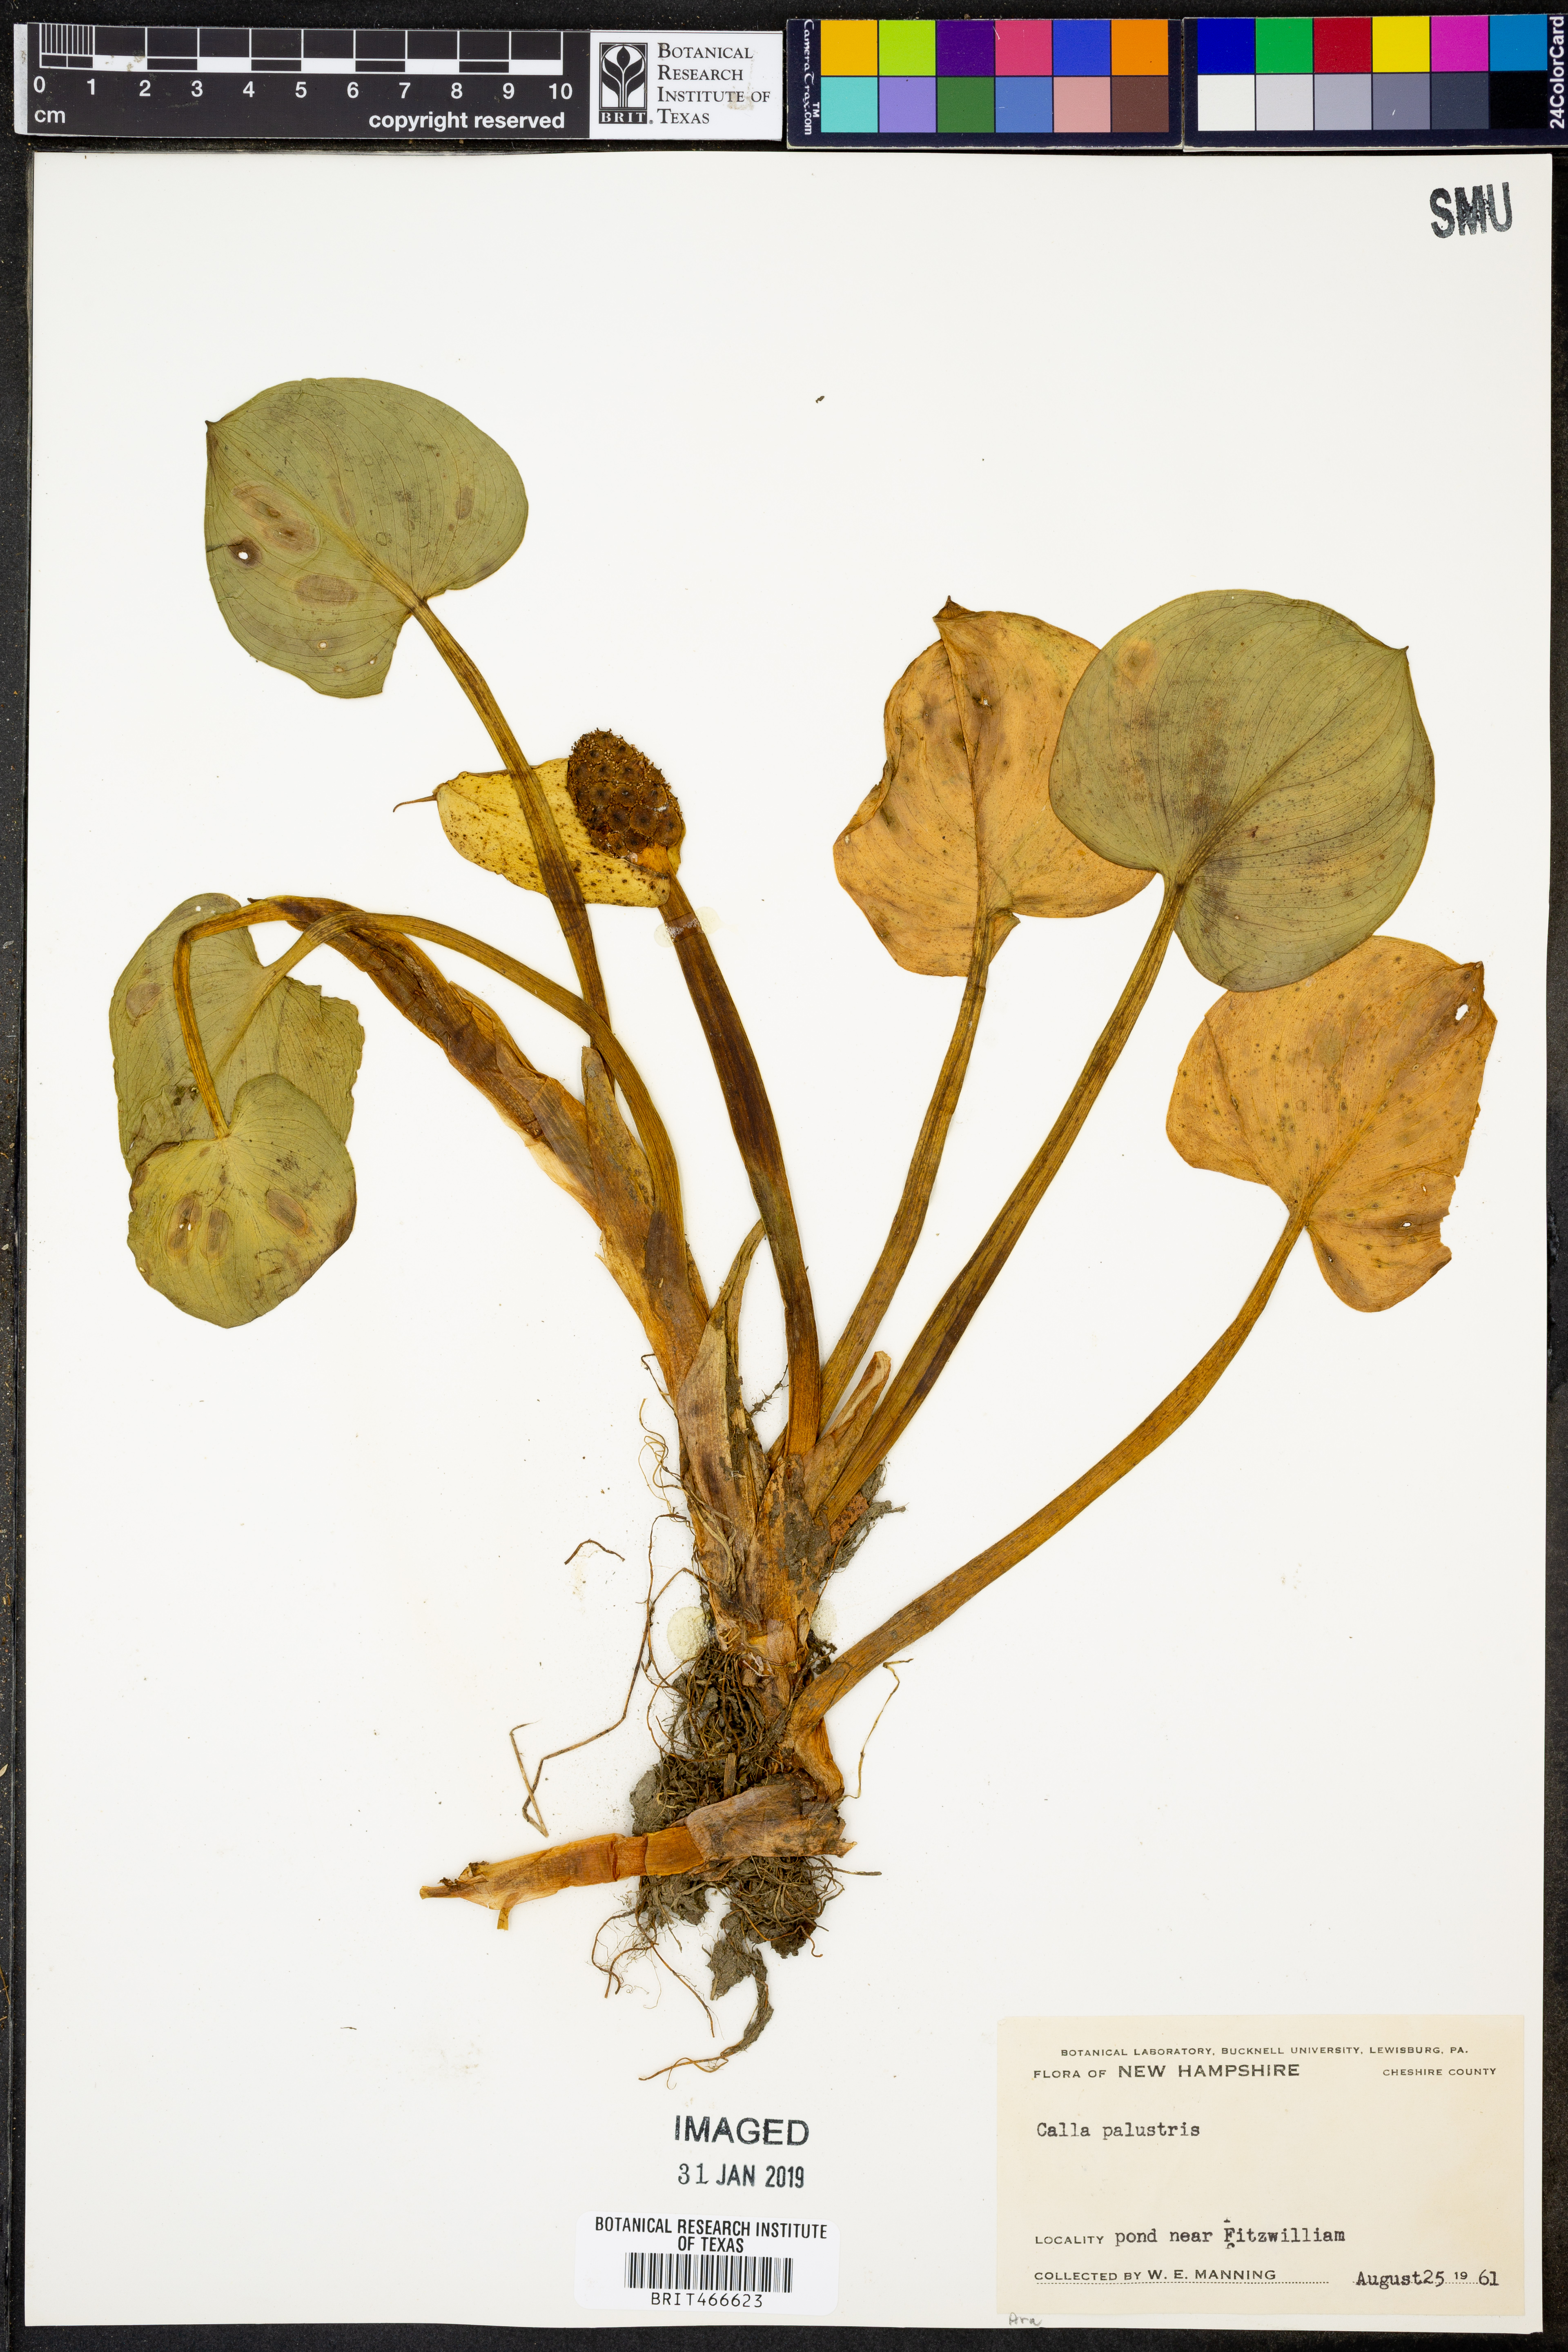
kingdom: Plantae
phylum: Tracheophyta
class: Liliopsida
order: Alismatales
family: Araceae
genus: Calla
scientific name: Calla palustris
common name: Bog arum
